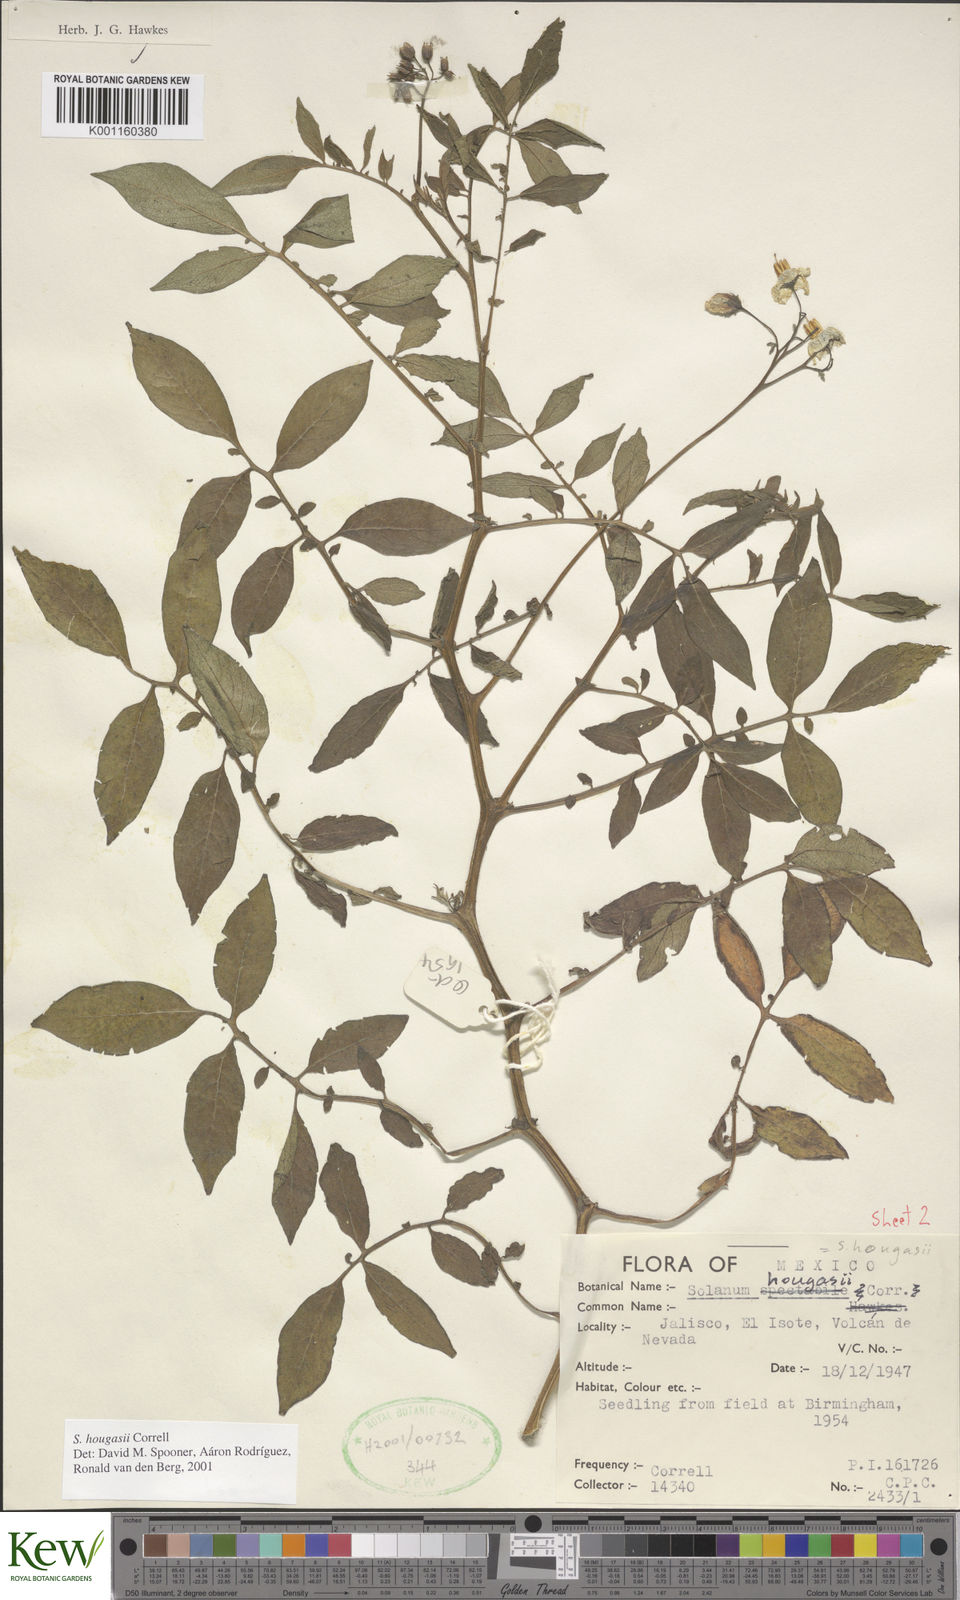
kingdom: Plantae
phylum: Tracheophyta
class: Magnoliopsida
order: Solanales
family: Solanaceae
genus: Solanum
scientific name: Solanum hougasii
